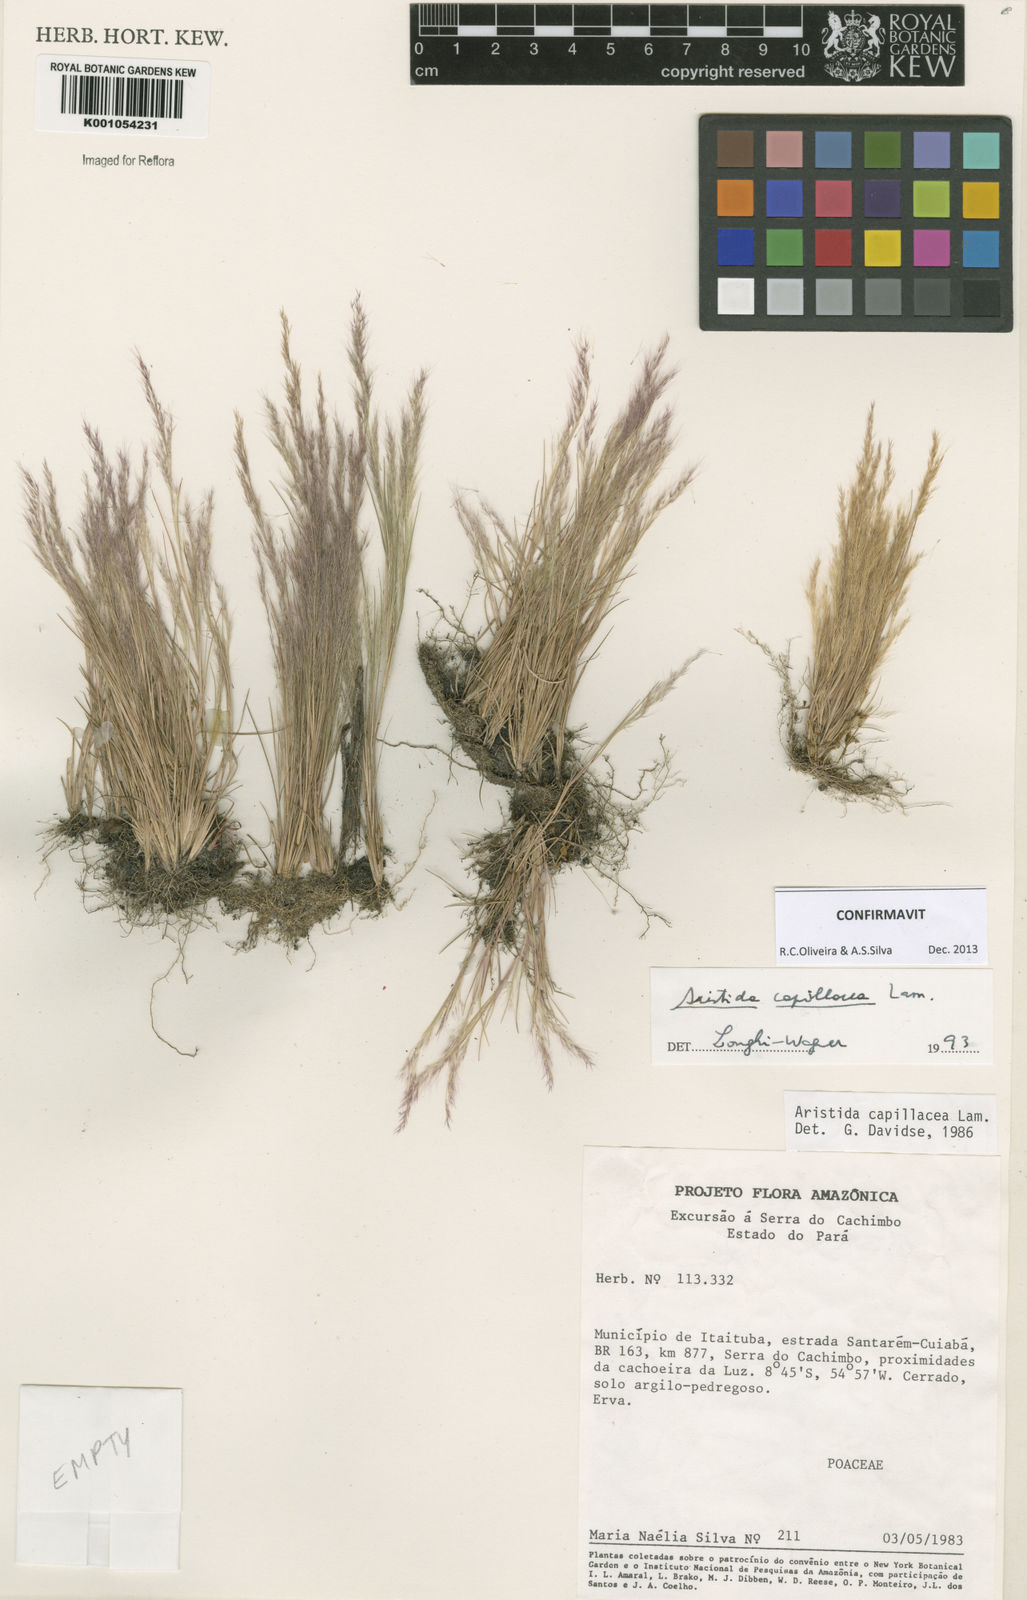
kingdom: Plantae
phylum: Tracheophyta
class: Liliopsida
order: Poales
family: Poaceae
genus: Aristida
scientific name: Aristida capillacea
